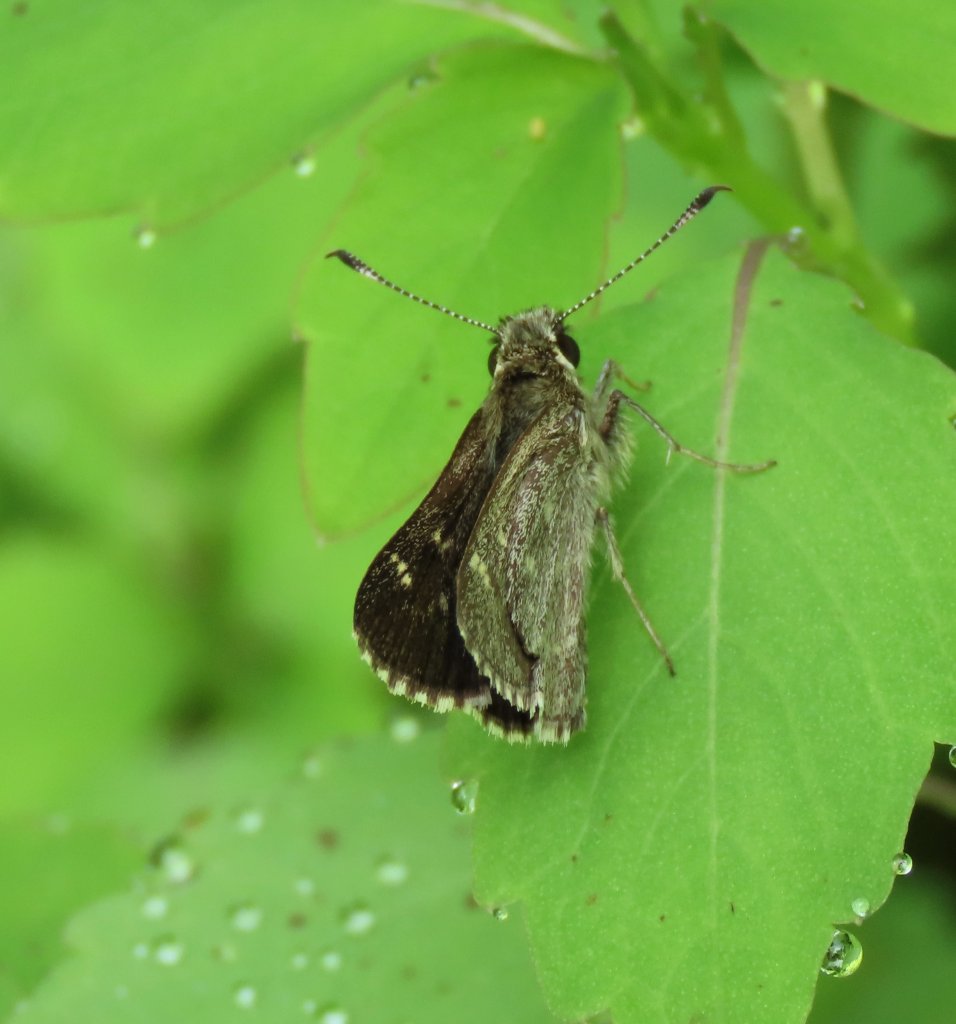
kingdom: Animalia
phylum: Arthropoda
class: Insecta
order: Lepidoptera
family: Hesperiidae
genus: Mastor
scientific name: Mastor hegon
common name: Pepper and Salt Skipper
